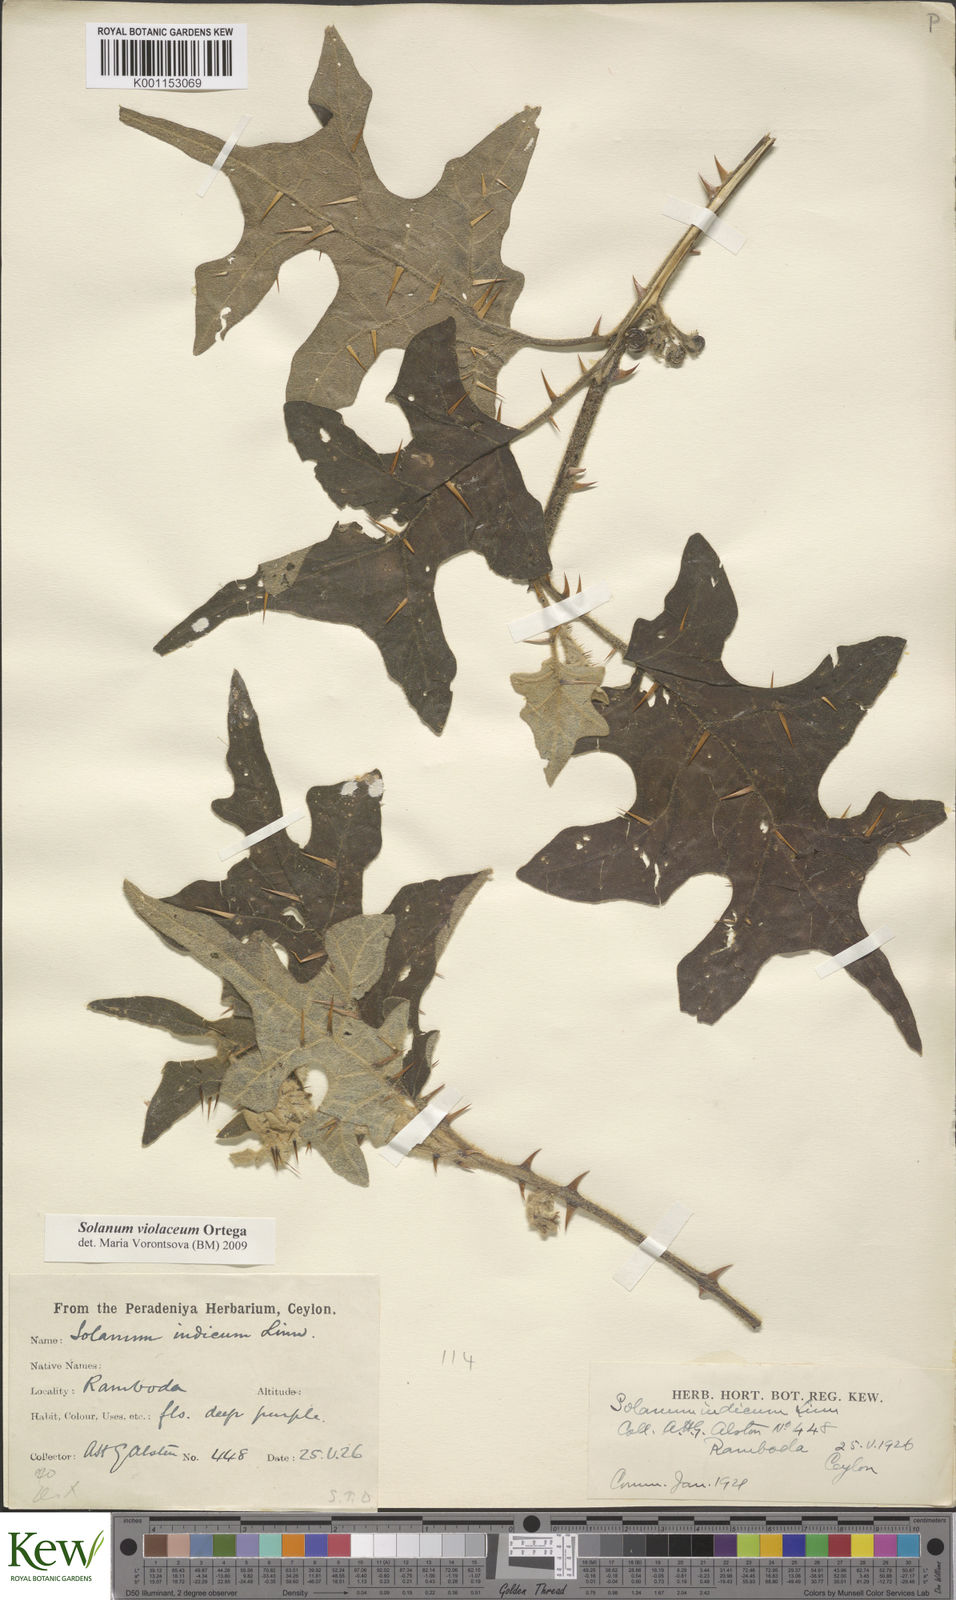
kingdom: Plantae
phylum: Tracheophyta
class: Magnoliopsida
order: Solanales
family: Solanaceae
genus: Solanum
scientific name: Solanum violaceum
